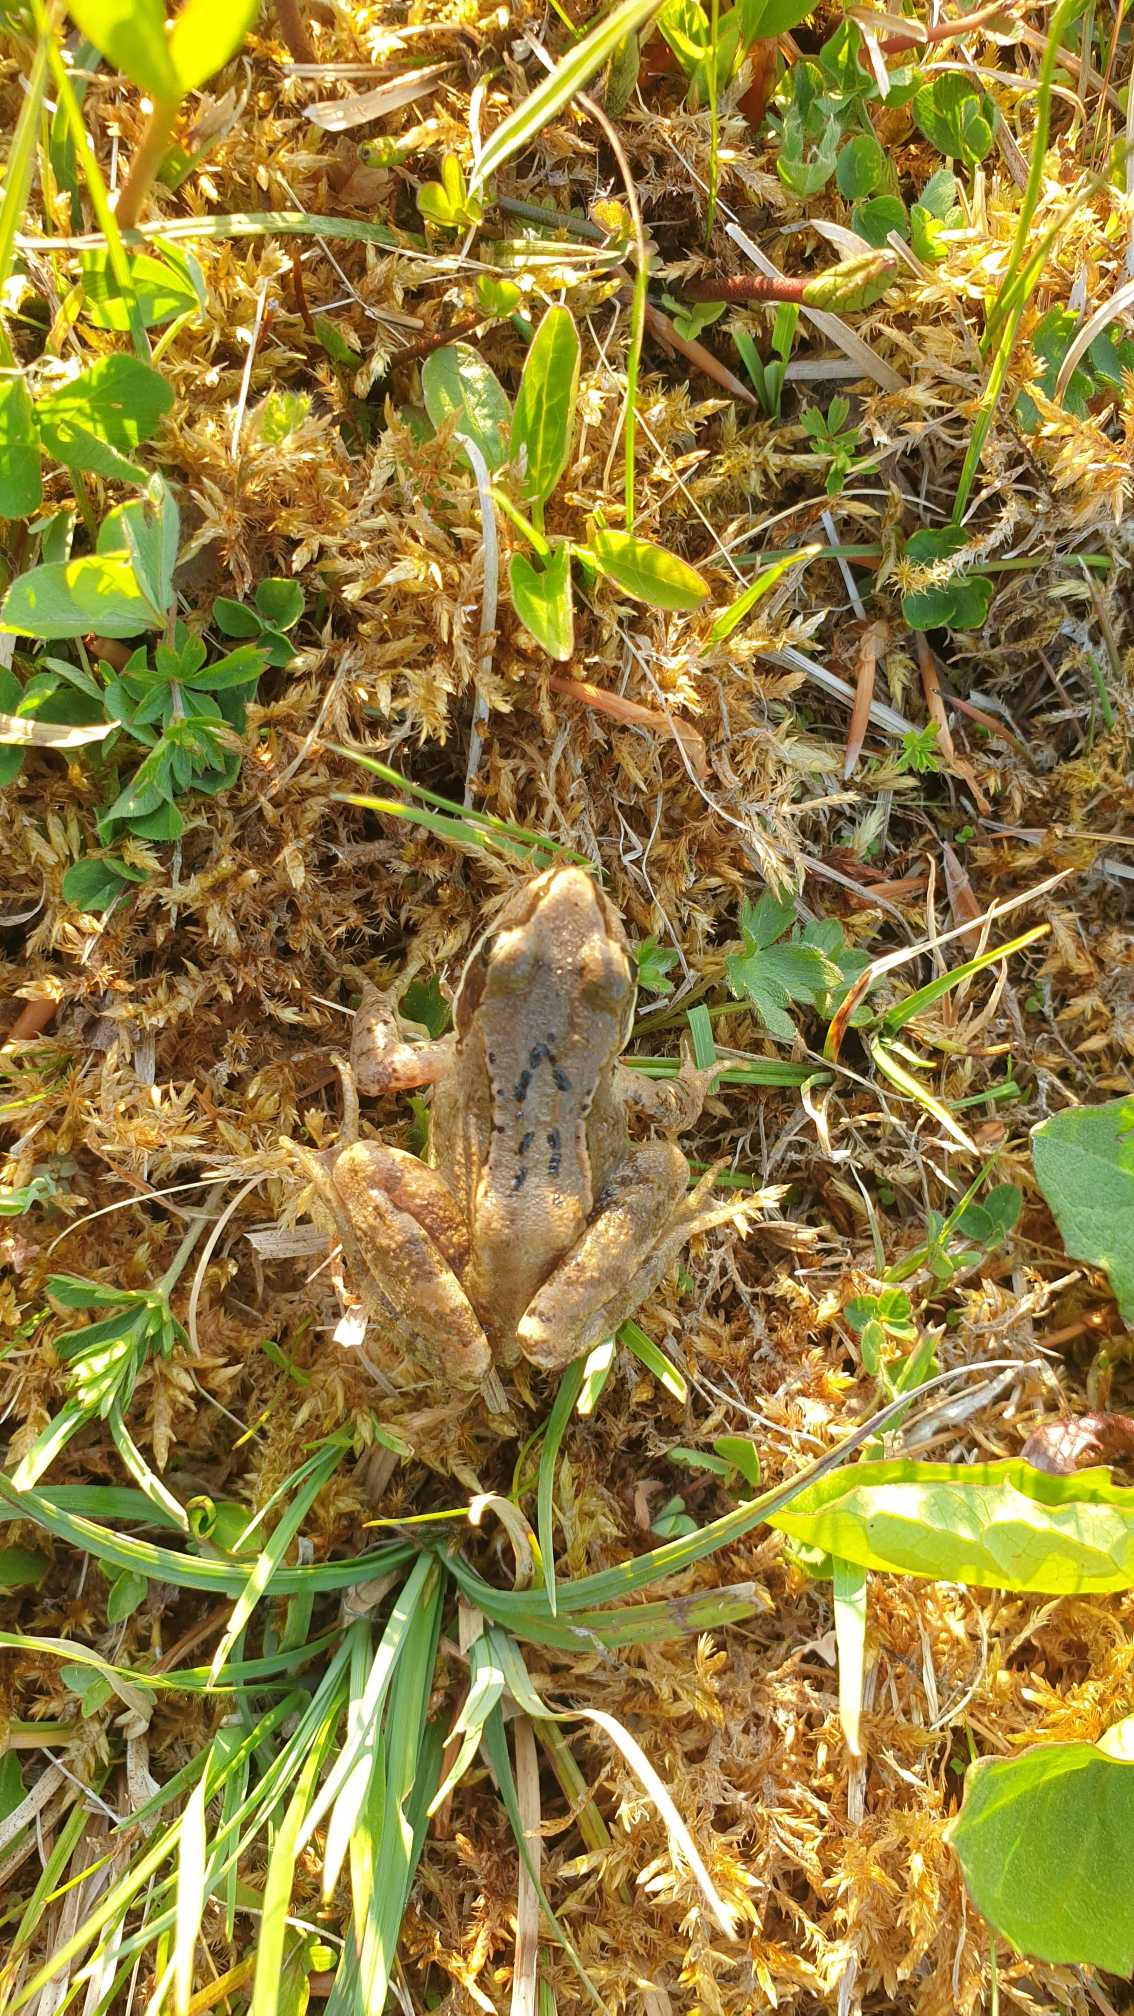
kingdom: Animalia
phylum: Chordata
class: Amphibia
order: Anura
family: Ranidae
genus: Rana
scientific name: Rana temporaria
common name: Butsnudet frø
